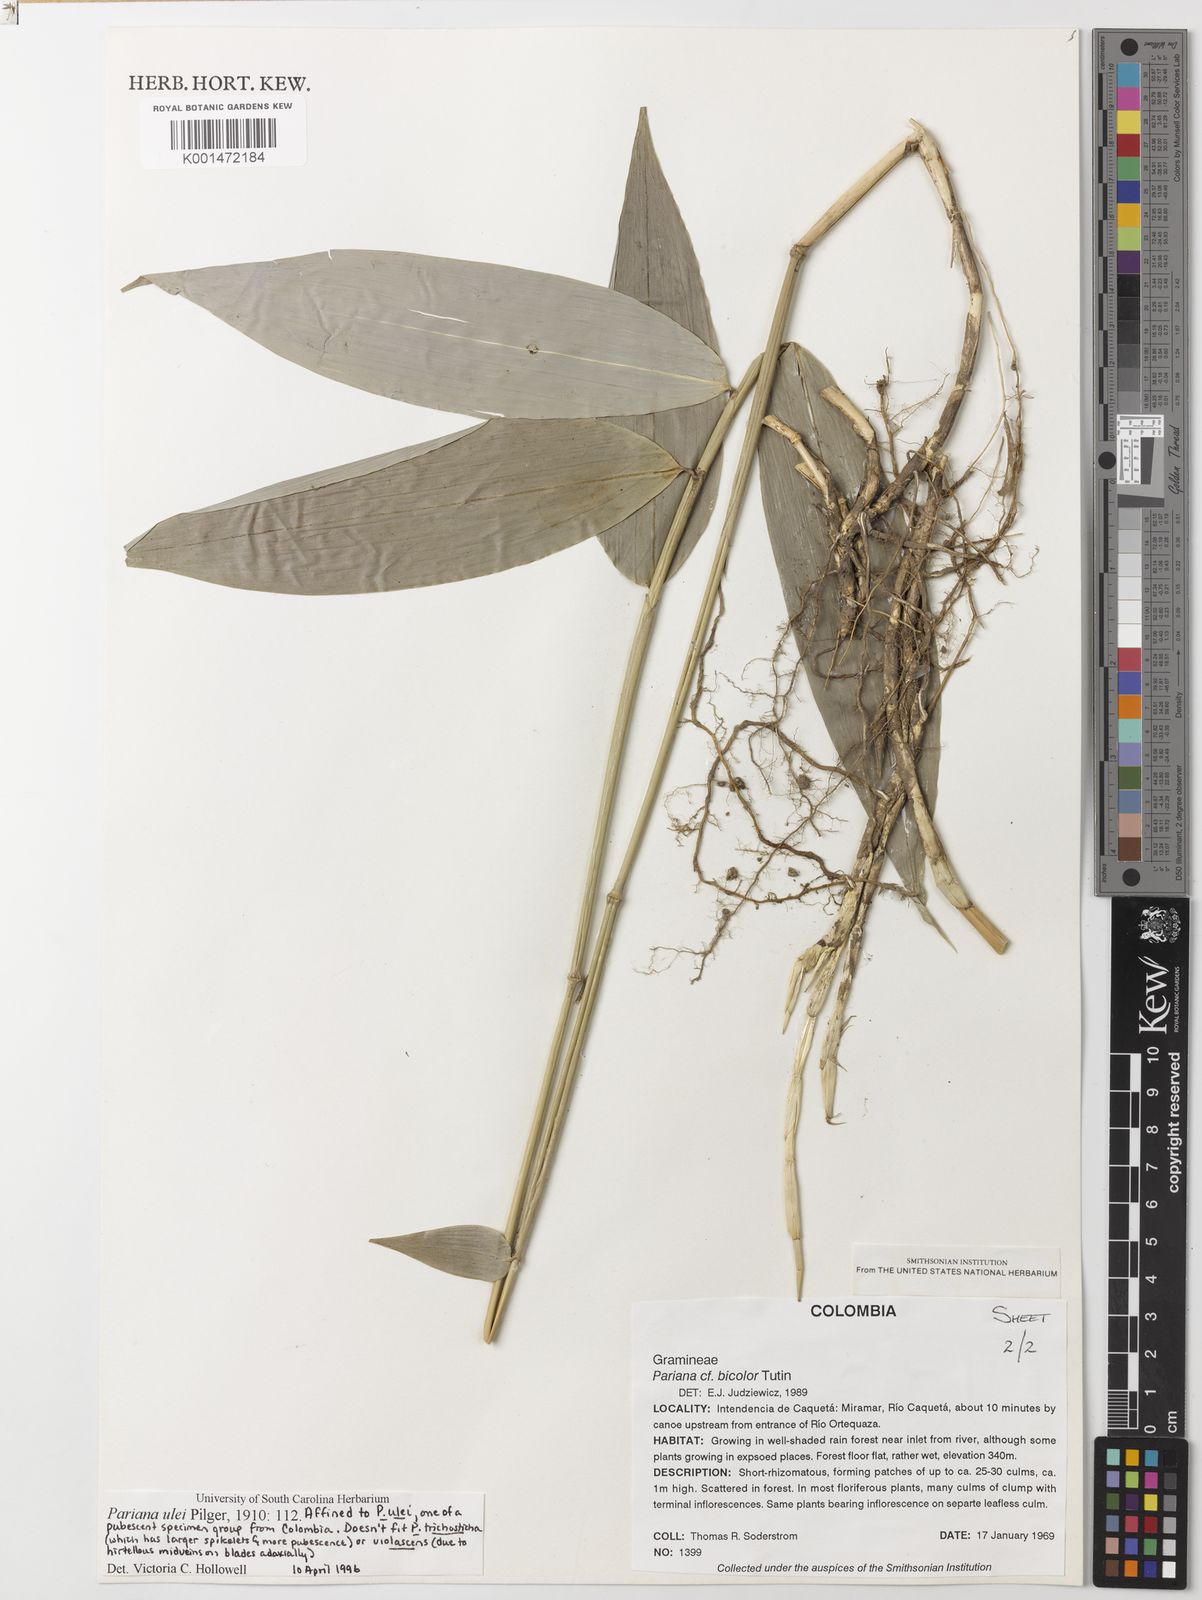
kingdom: Plantae
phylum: Tracheophyta
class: Liliopsida
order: Poales
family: Poaceae
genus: Pariana
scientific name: Pariana ulei
